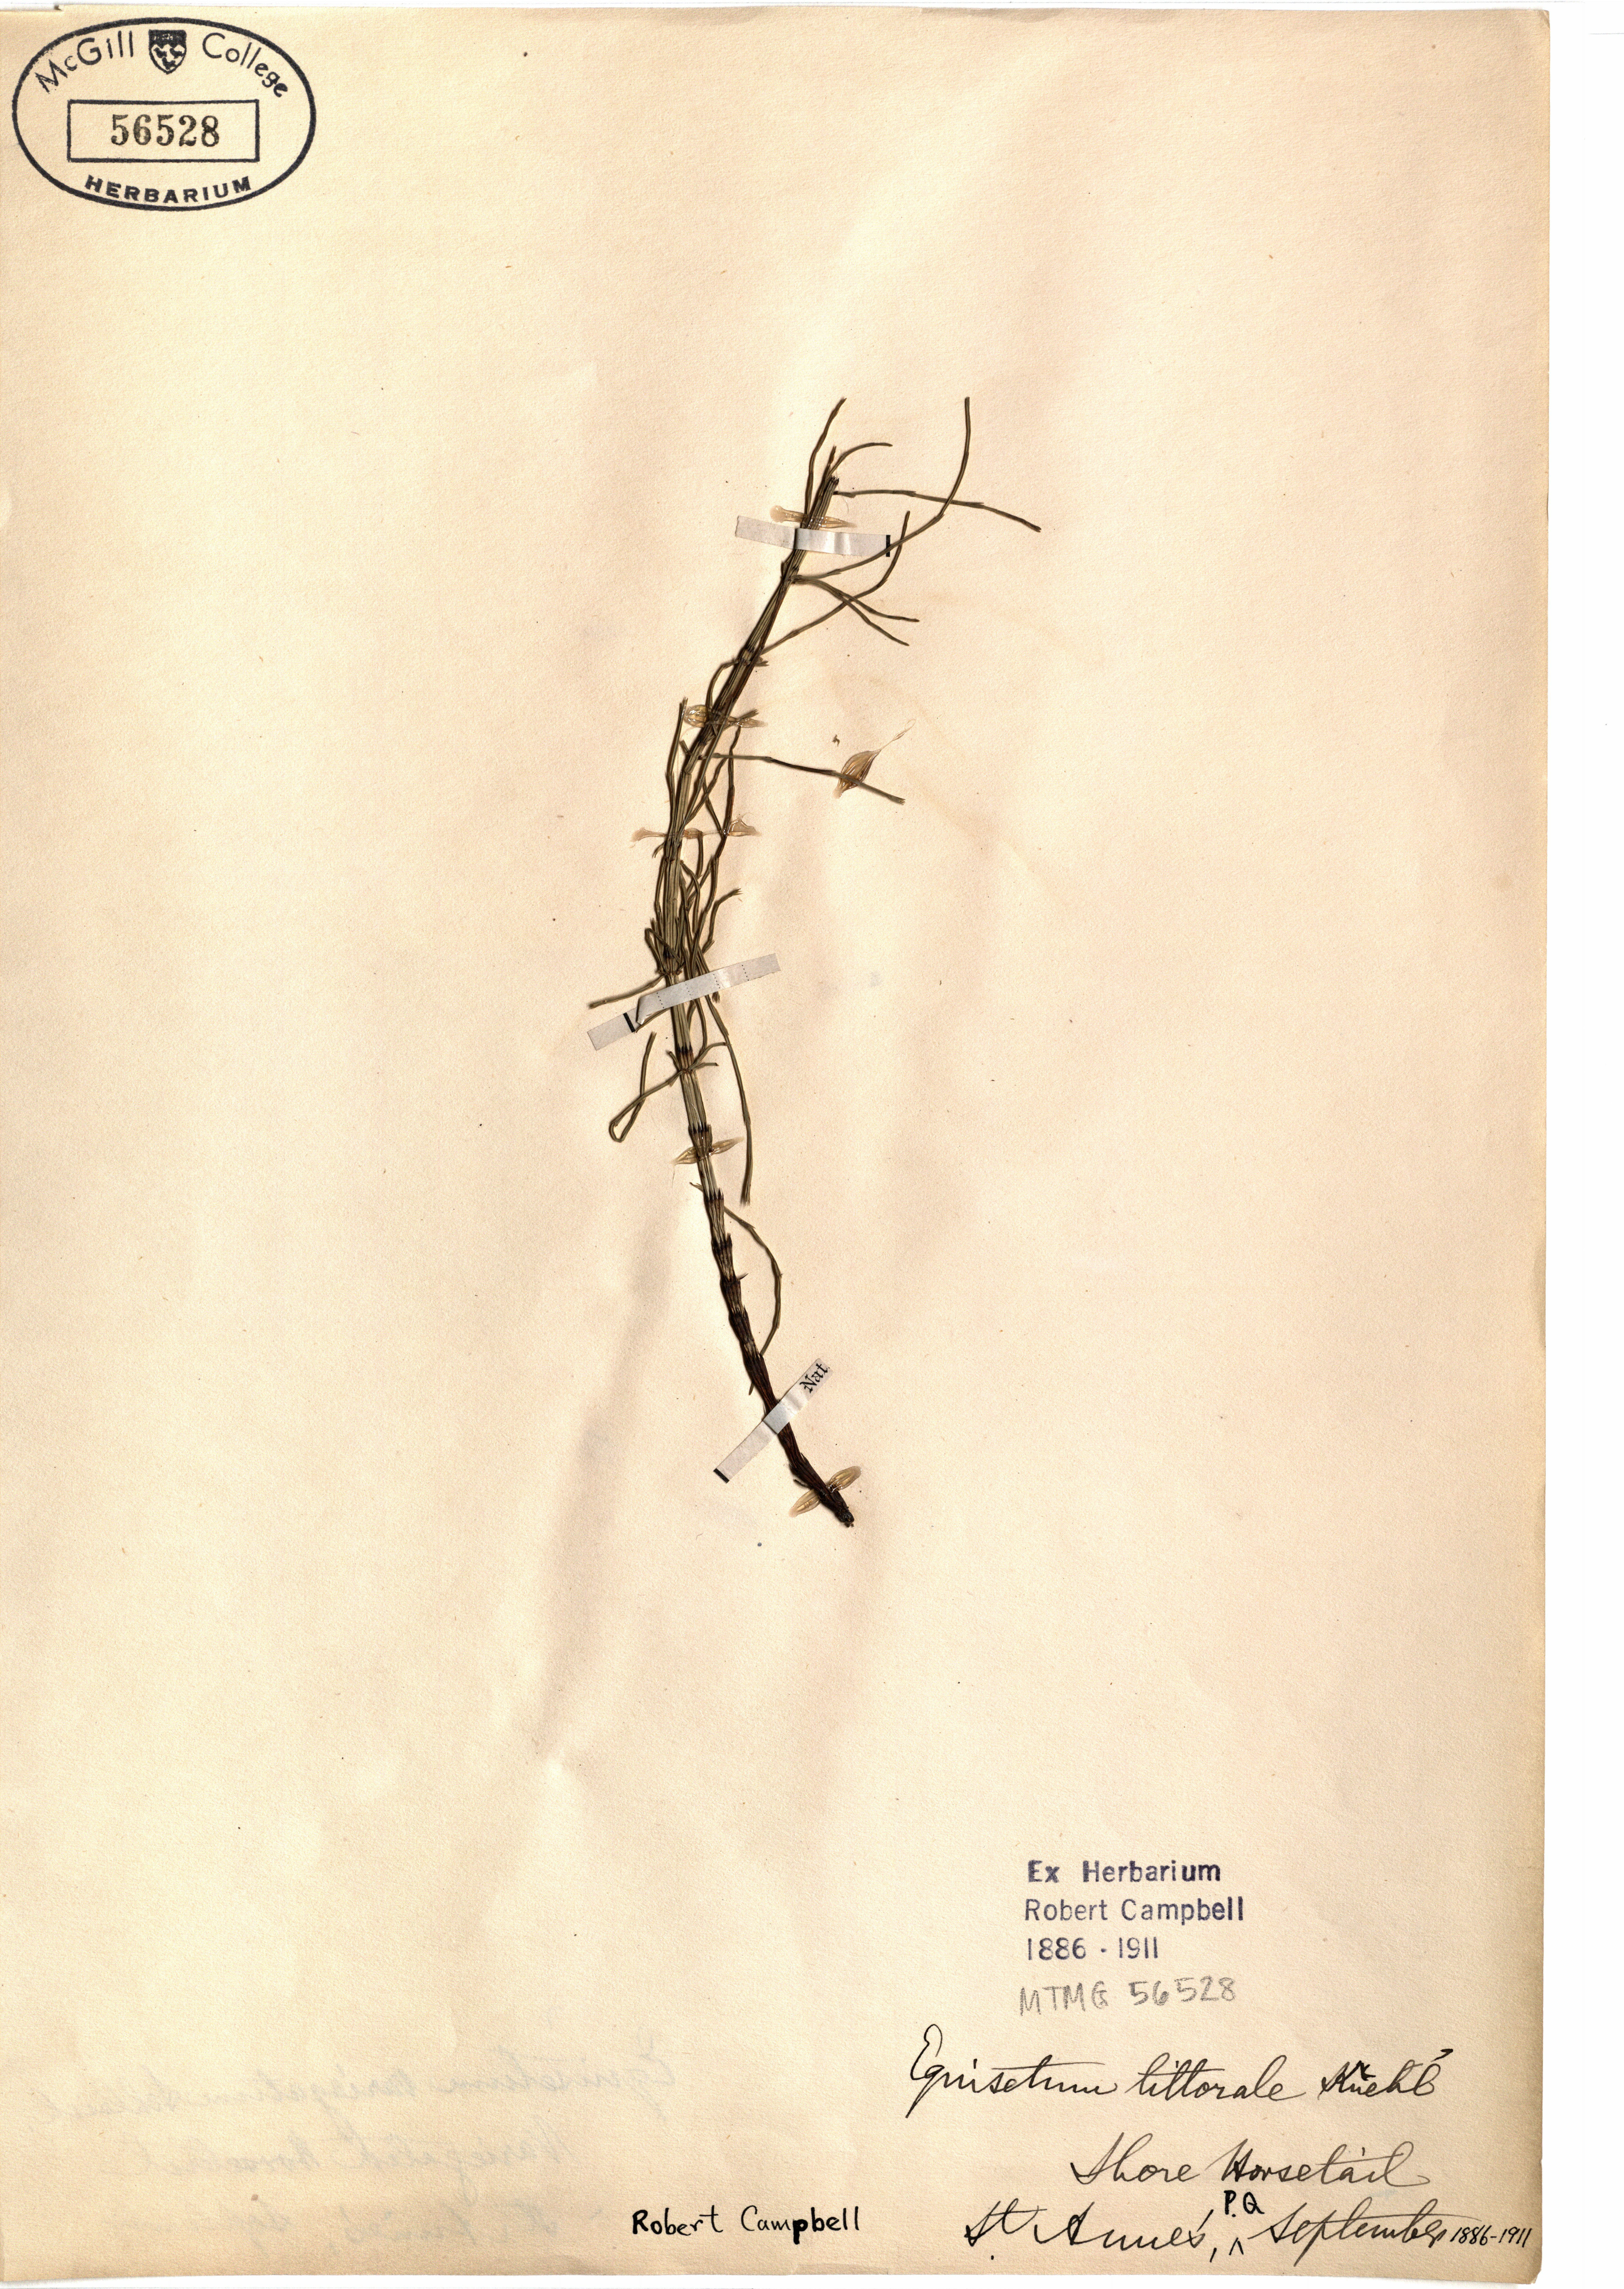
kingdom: Plantae
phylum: Tracheophyta
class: Polypodiopsida
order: Equisetales
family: Equisetaceae
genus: Equisetum
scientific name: Equisetum litorale
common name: Littoral horsetail
